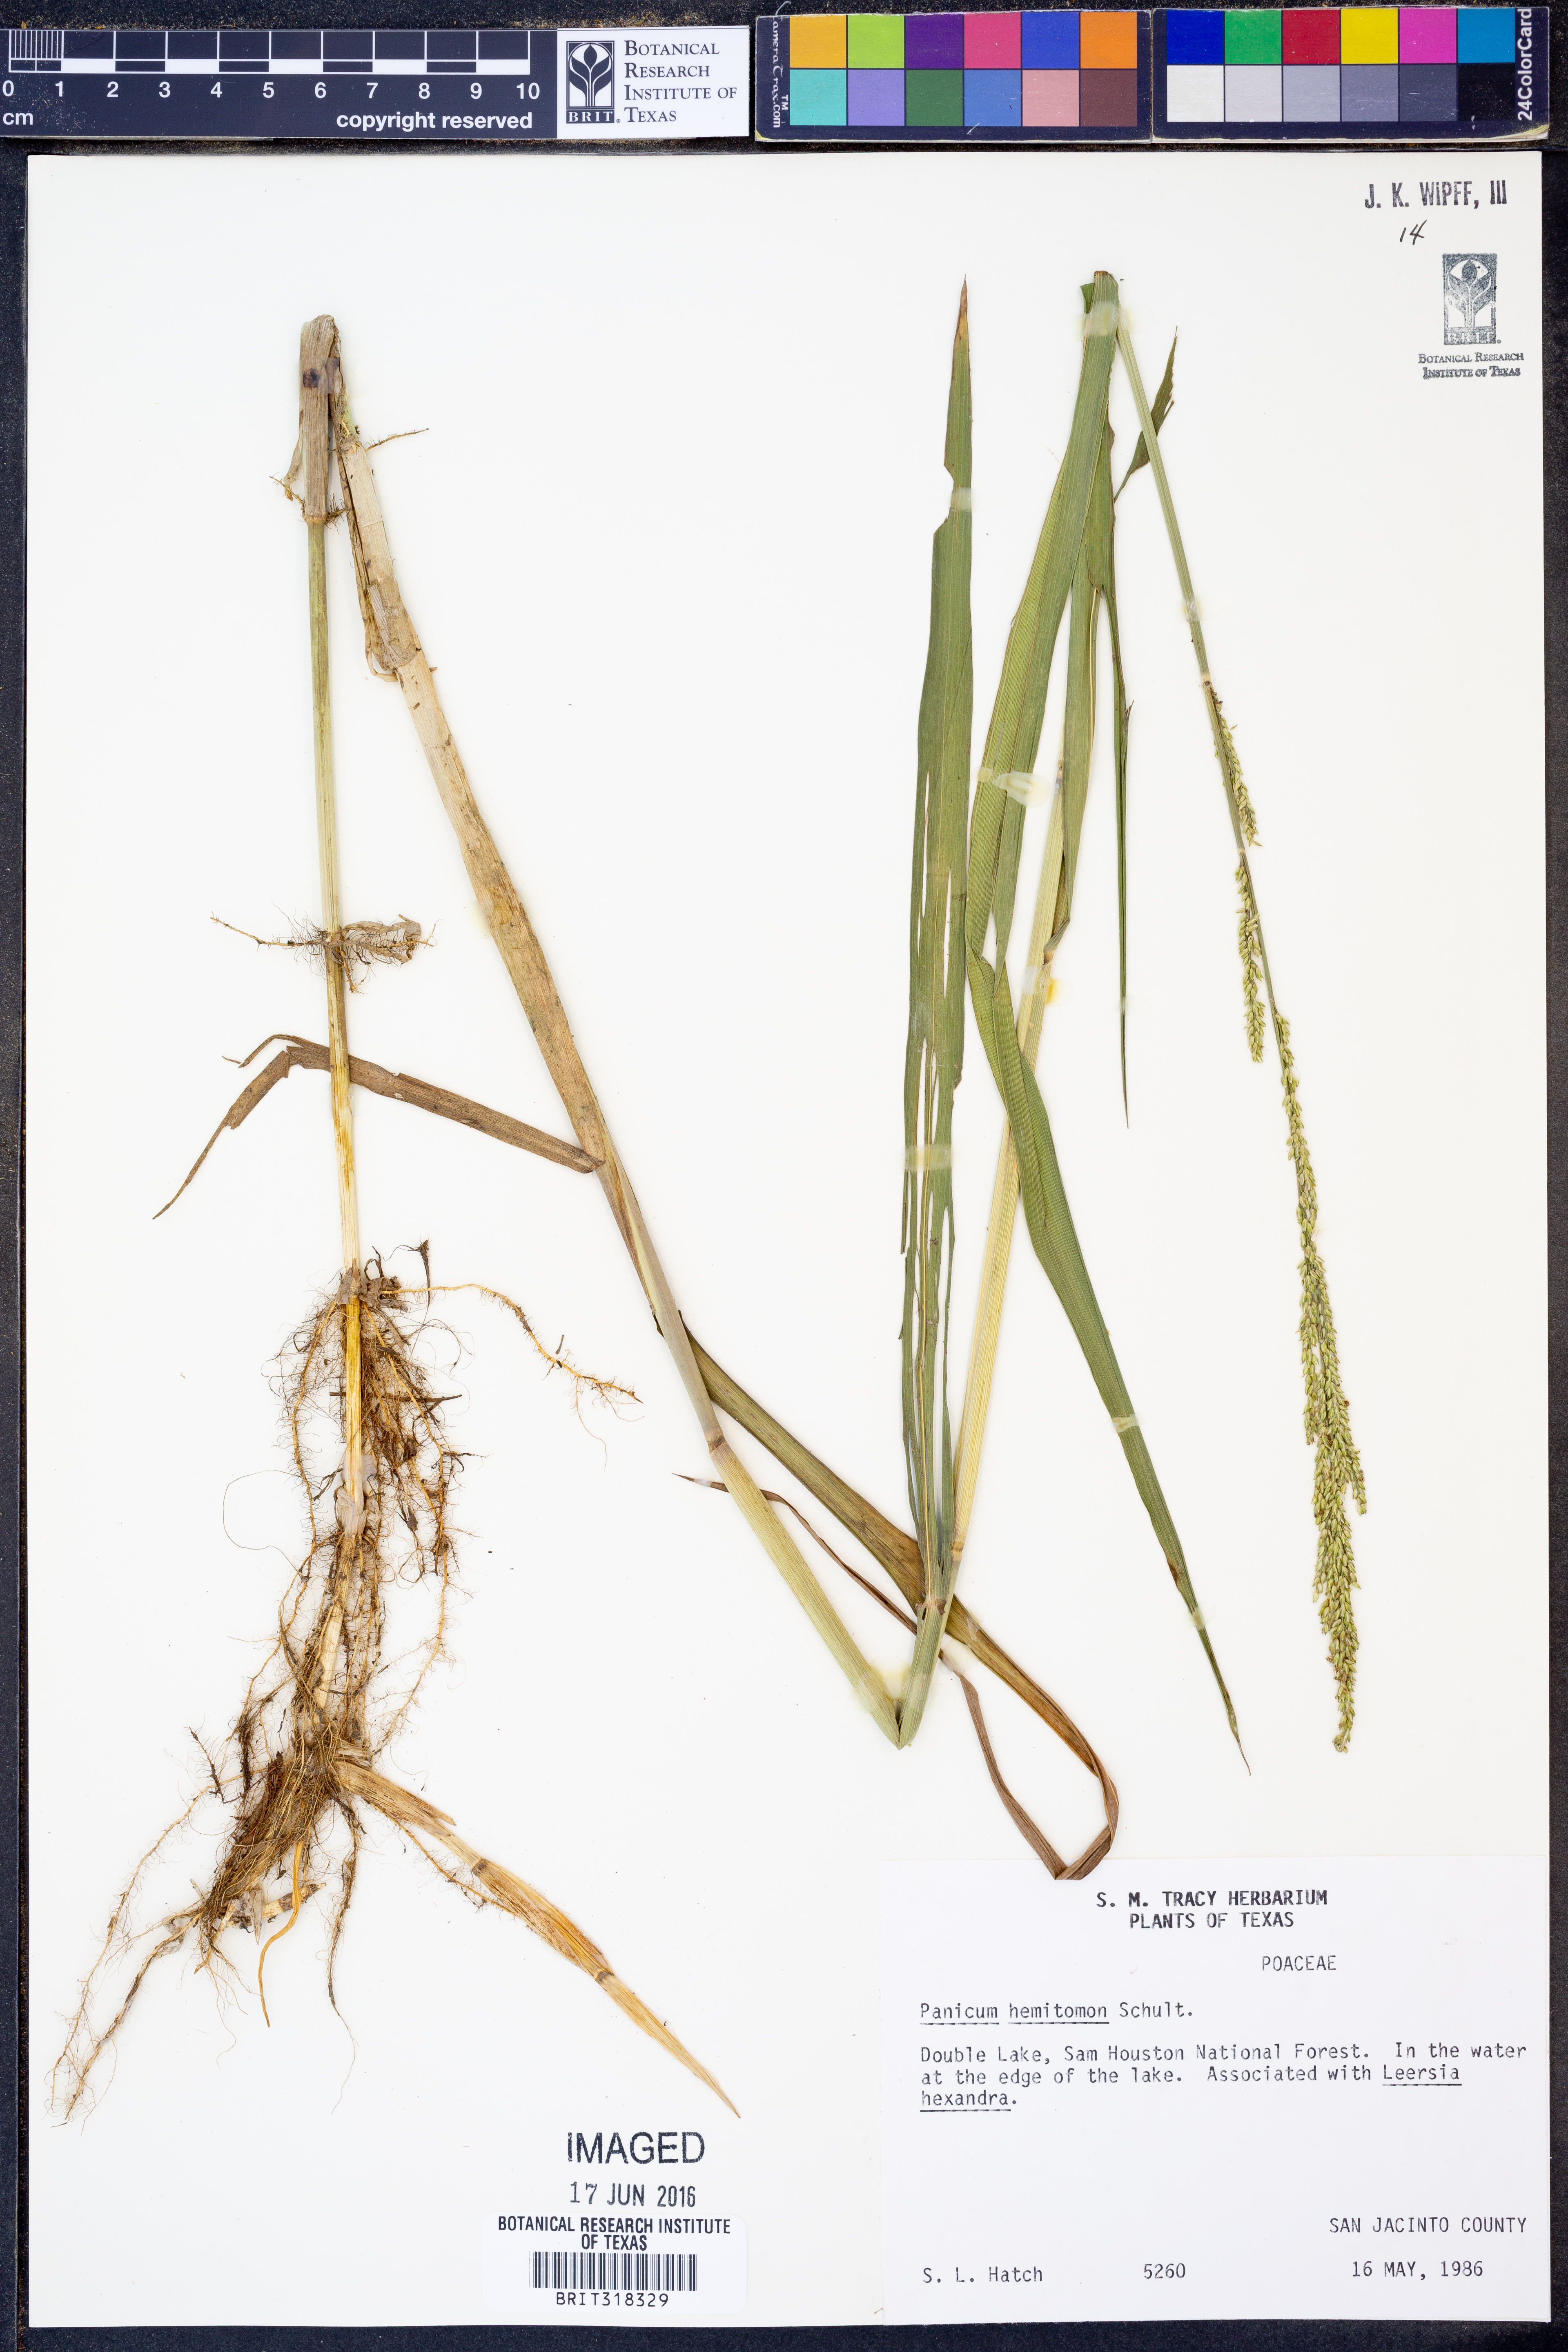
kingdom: Plantae
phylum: Tracheophyta
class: Liliopsida
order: Poales
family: Poaceae
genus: Panicum
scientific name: Panicum hemitomon
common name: Maidencane
